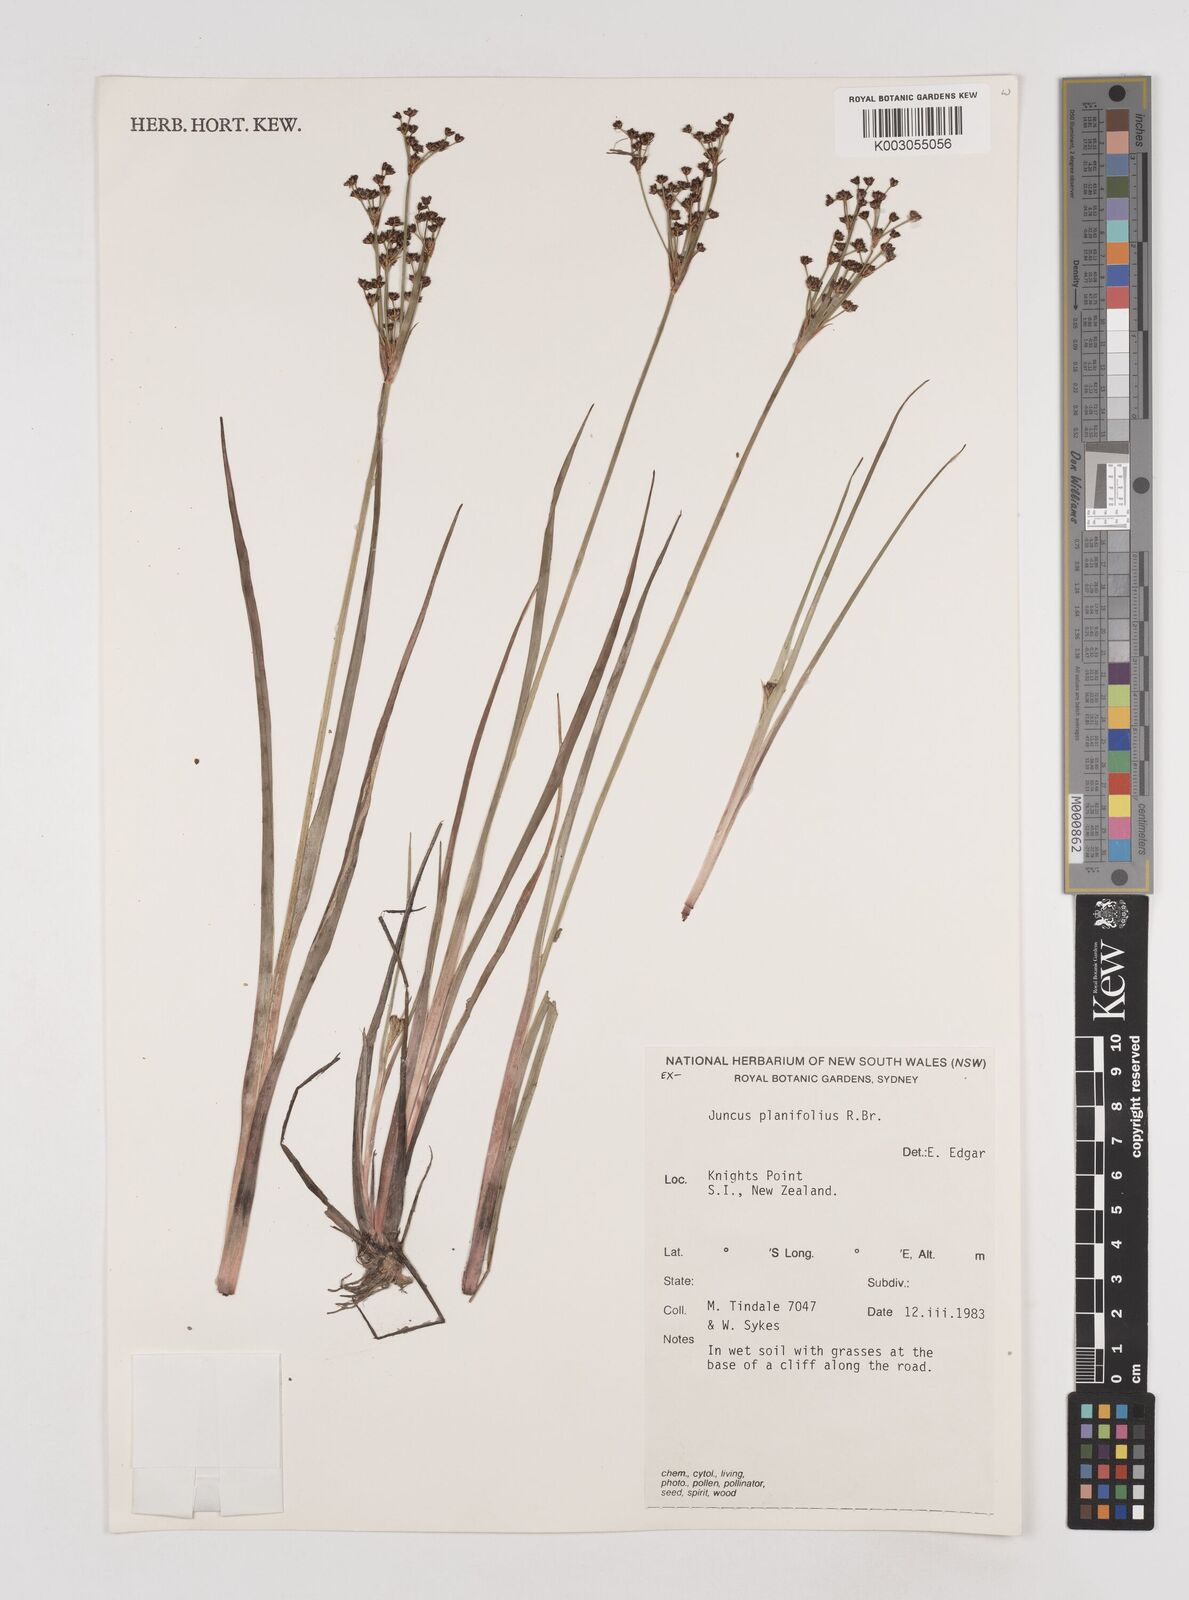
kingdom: Plantae
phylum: Tracheophyta
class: Liliopsida
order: Poales
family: Juncaceae
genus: Juncus
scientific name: Juncus planifolius
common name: Broadleaf rush
